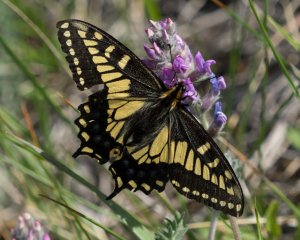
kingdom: Animalia
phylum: Arthropoda
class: Insecta
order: Lepidoptera
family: Papilionidae
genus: Papilio
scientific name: Papilio zelicaon
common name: Anise Swallowtail
